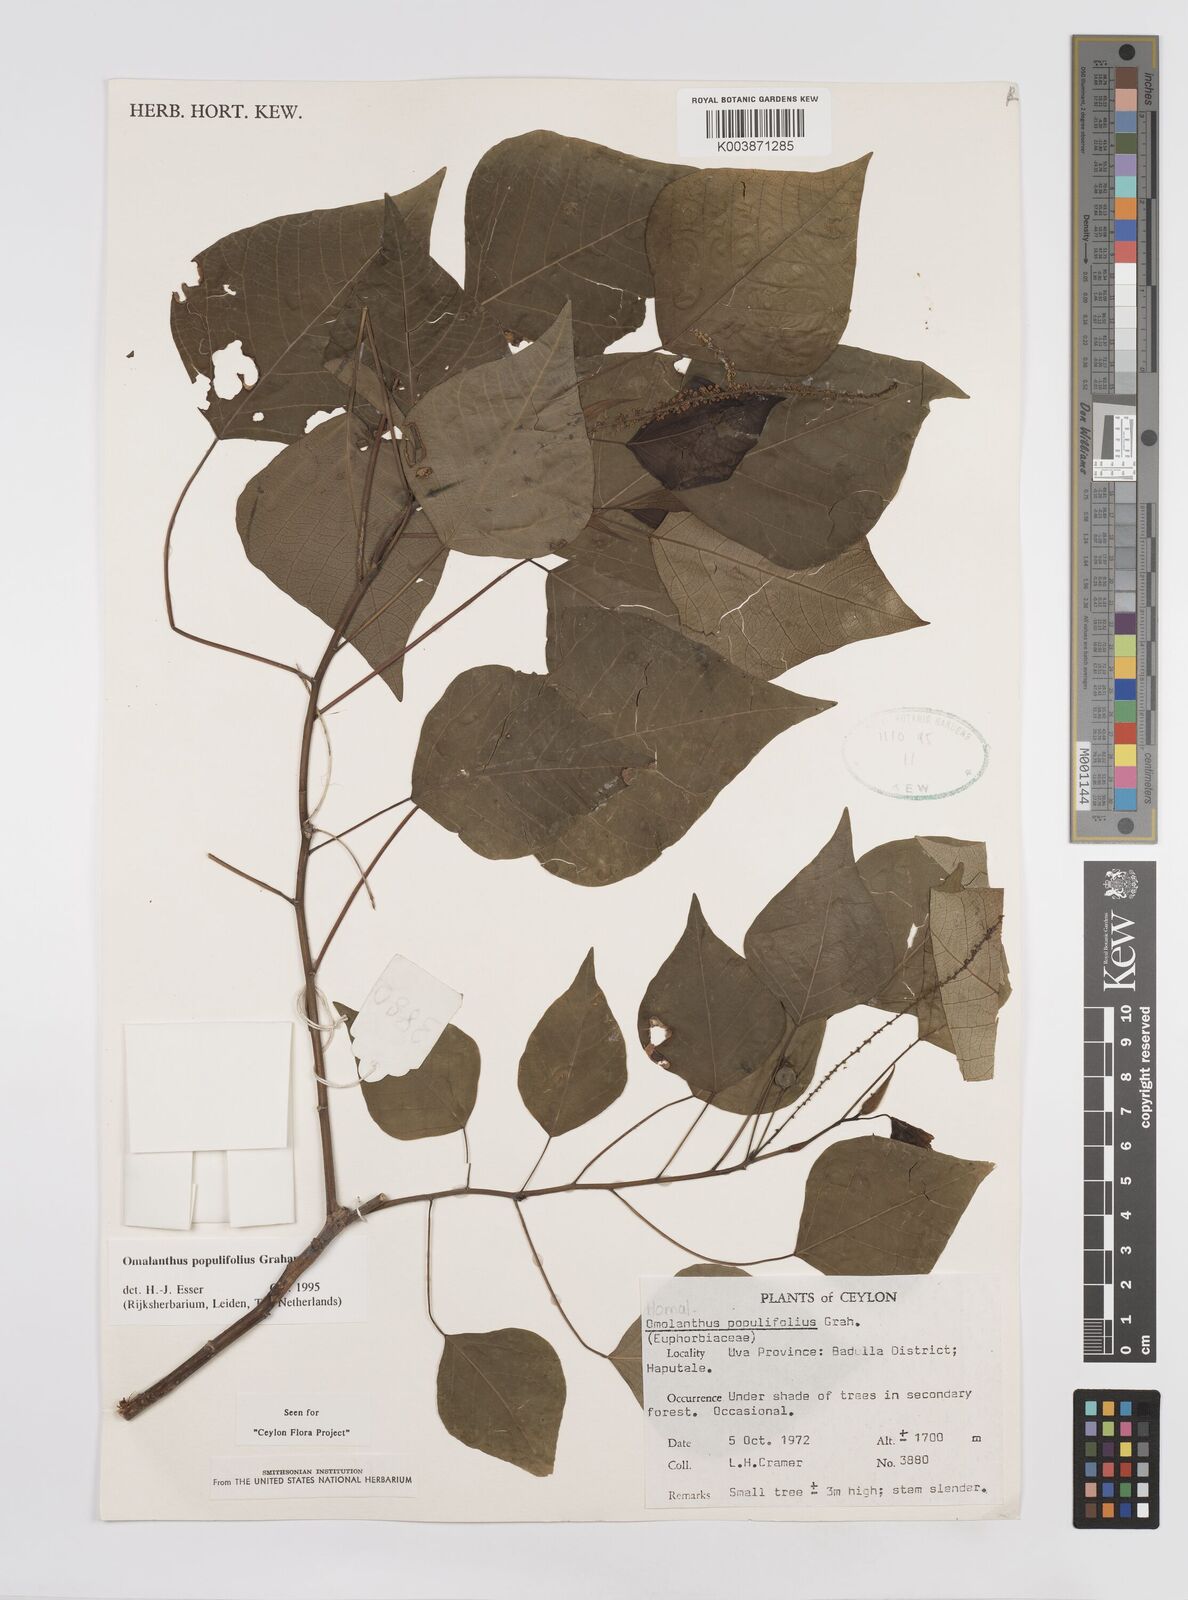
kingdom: Plantae
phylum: Tracheophyta
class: Magnoliopsida
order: Malpighiales
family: Euphorbiaceae
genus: Homalanthus
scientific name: Homalanthus populneus
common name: Spurge
